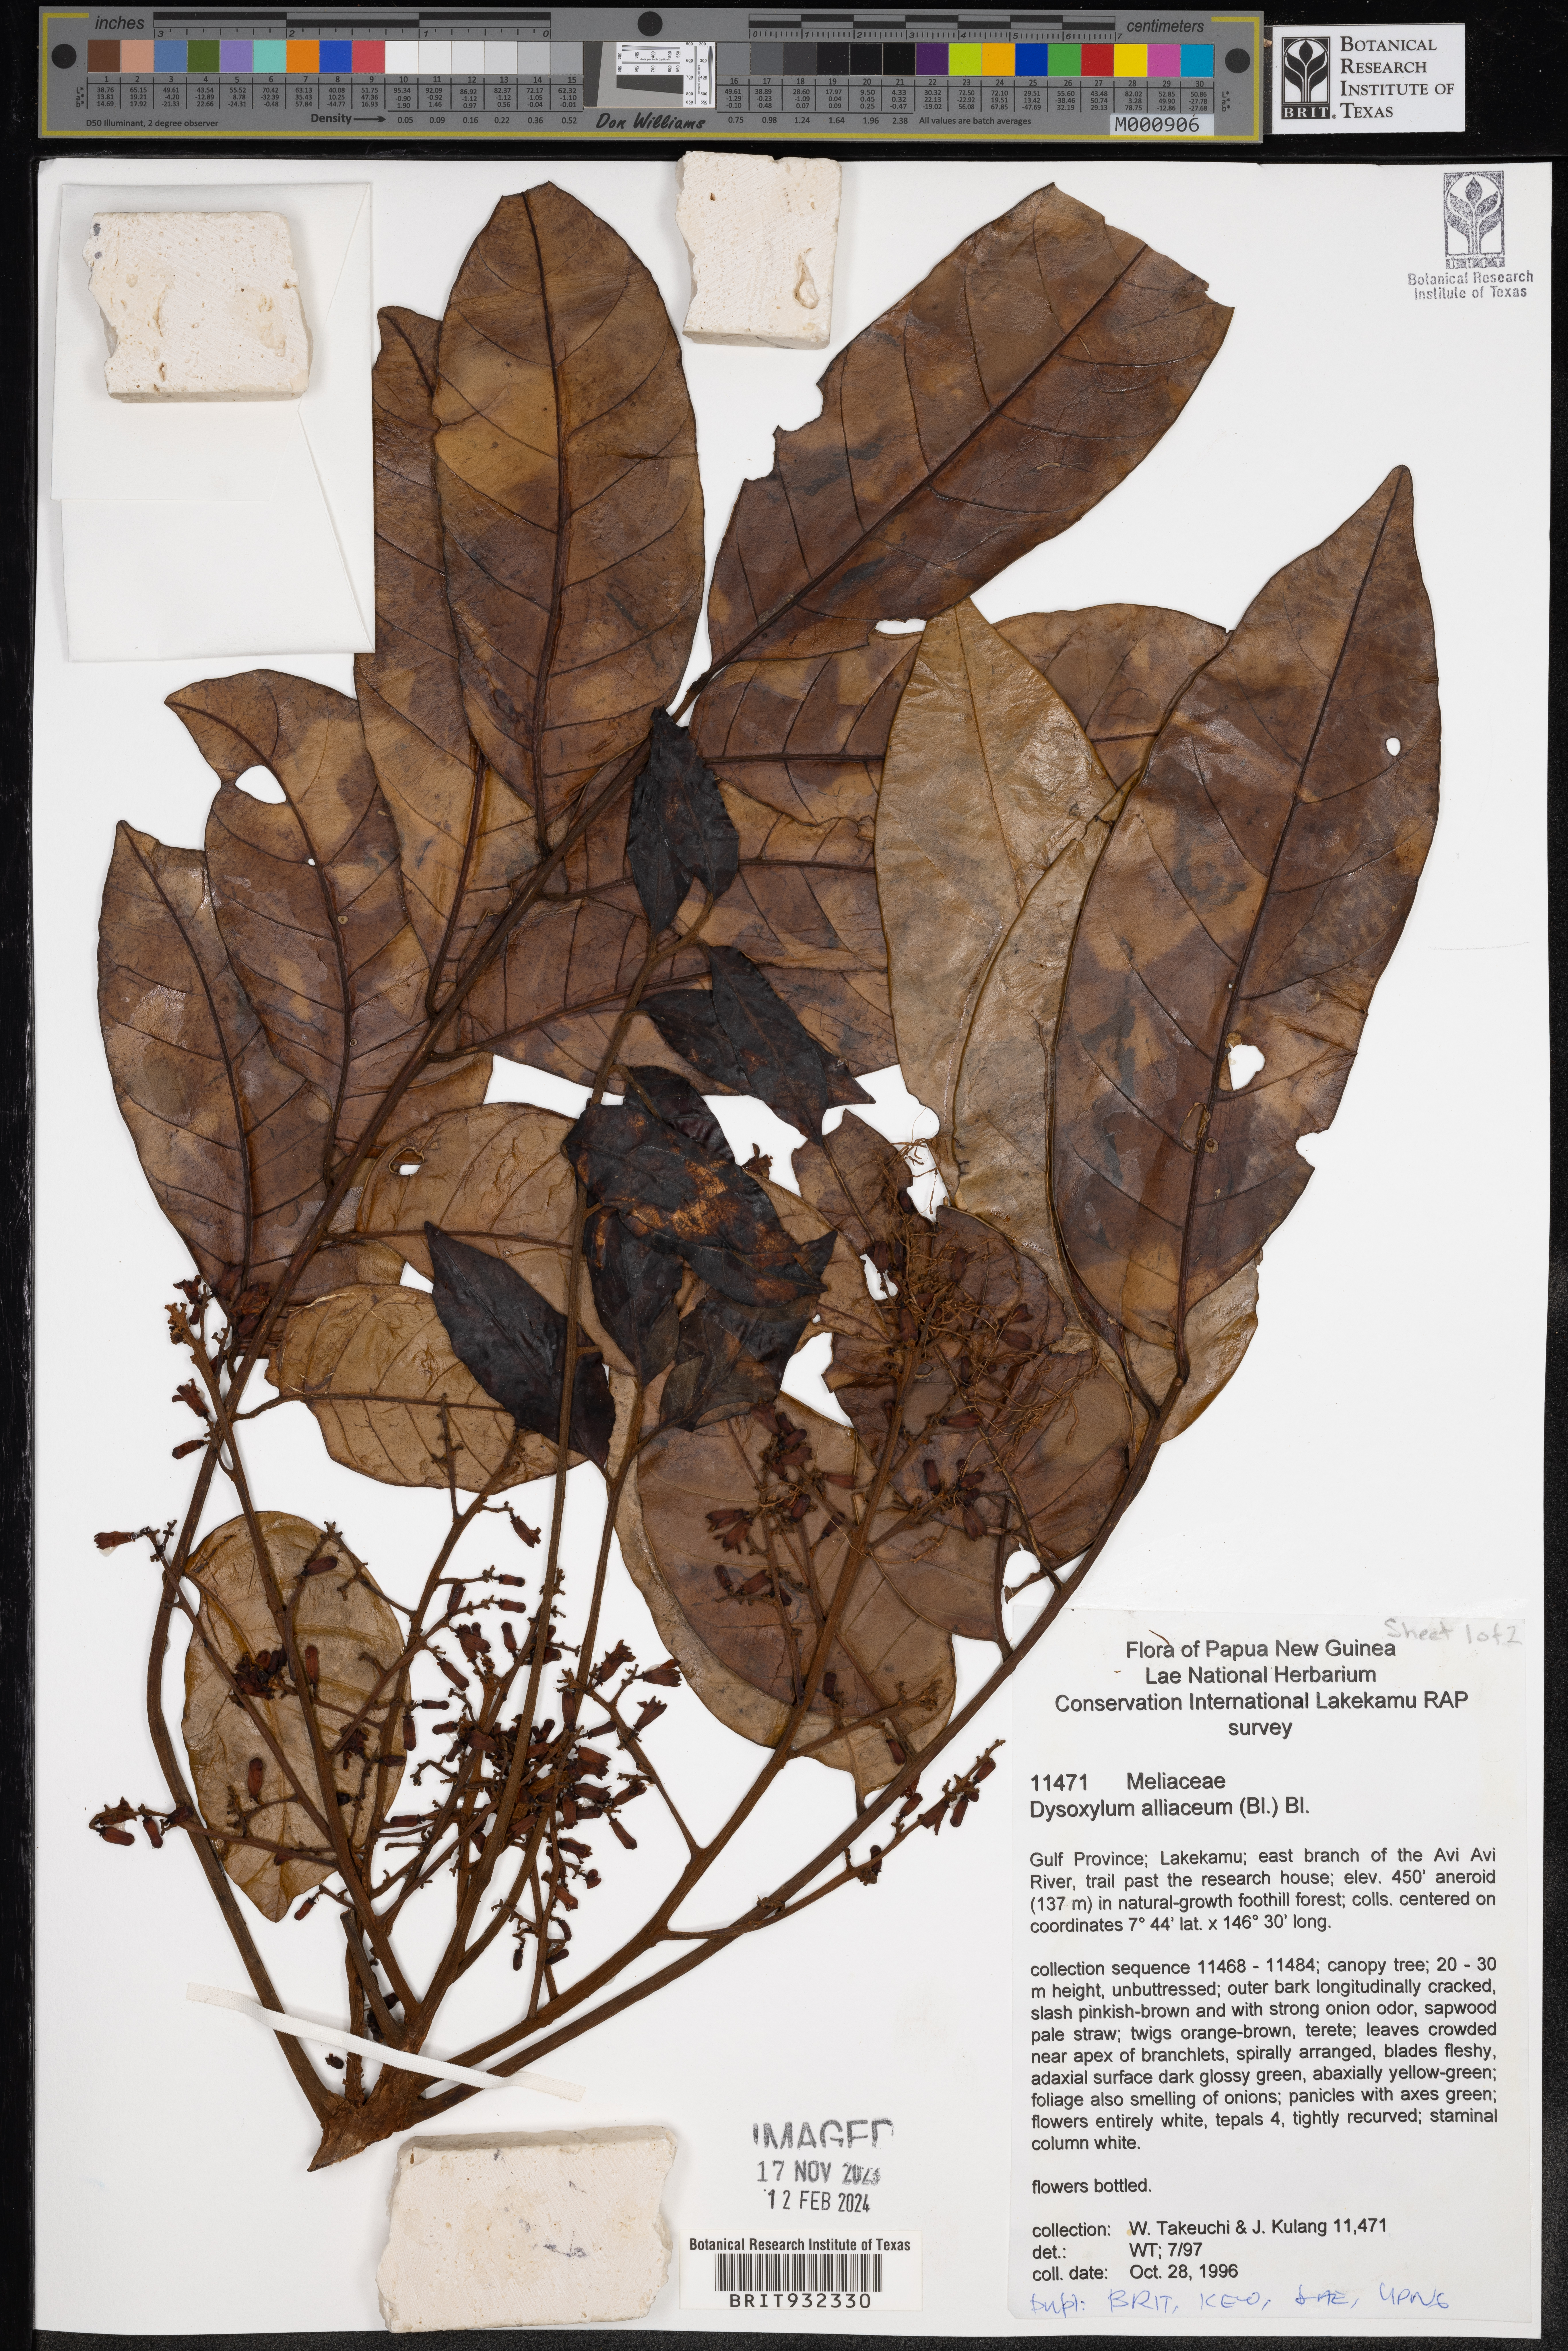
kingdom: Plantae
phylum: Tracheophyta
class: Magnoliopsida
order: Sapindales
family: Meliaceae
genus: Dysoxylum
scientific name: Dysoxylum
